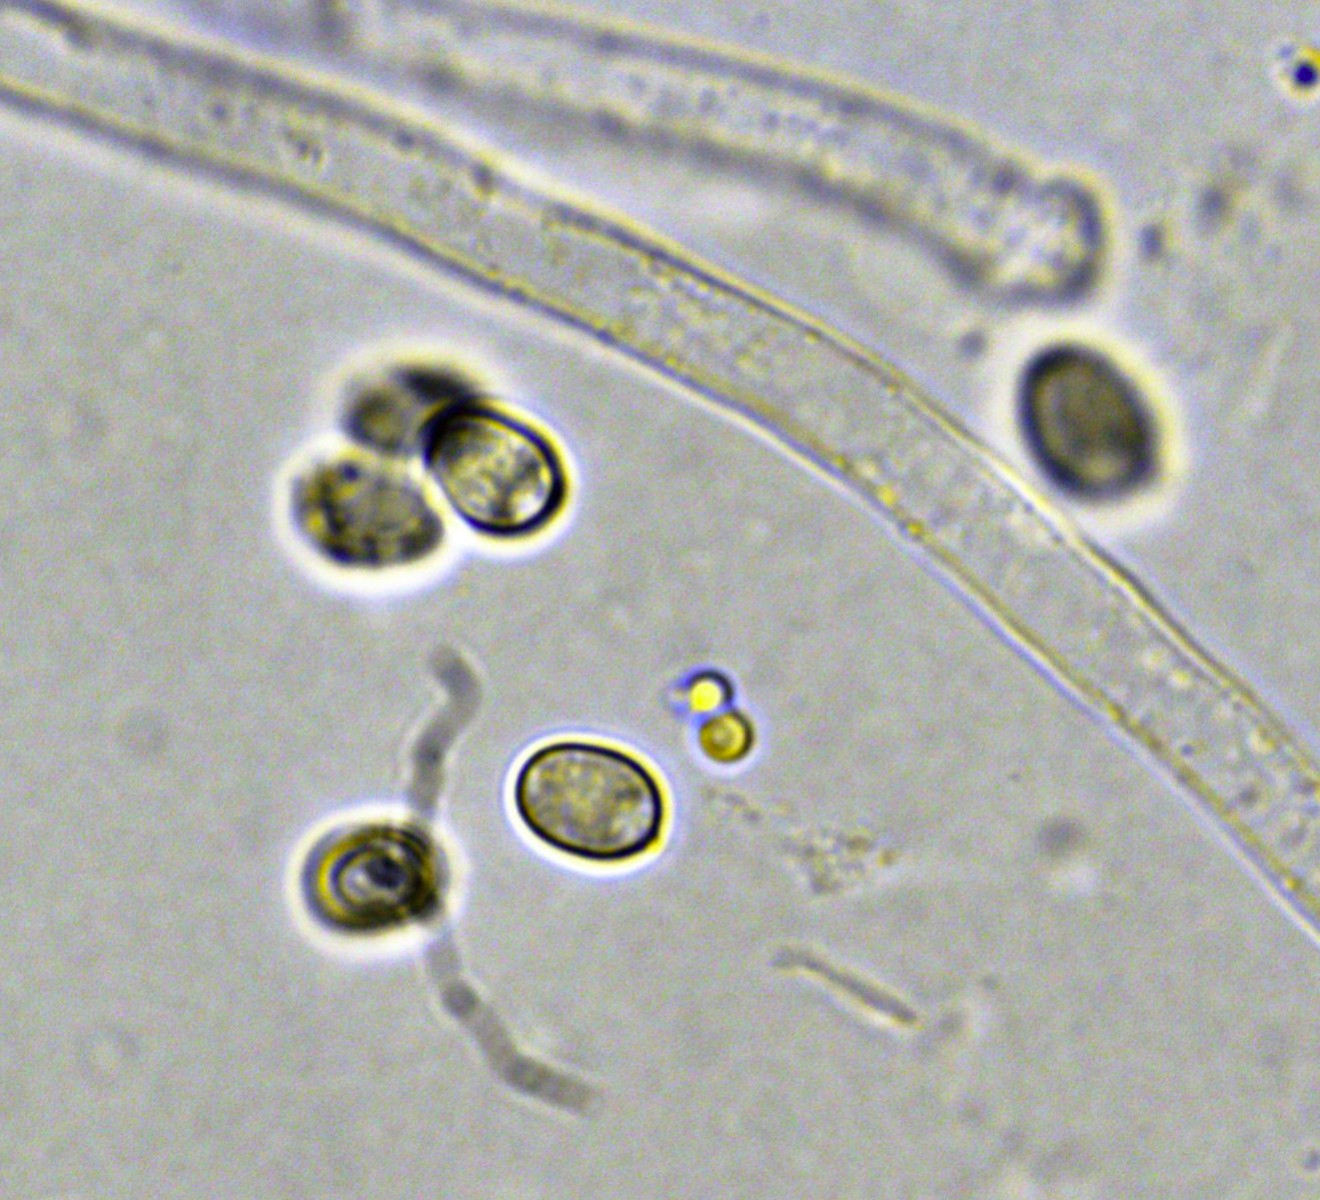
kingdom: Fungi
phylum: Basidiomycota
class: Agaricomycetes
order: Boletales
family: Hygrophoropsidaceae
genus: Leucogyrophana
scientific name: Leucogyrophana mollusca
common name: blød hussvamp
